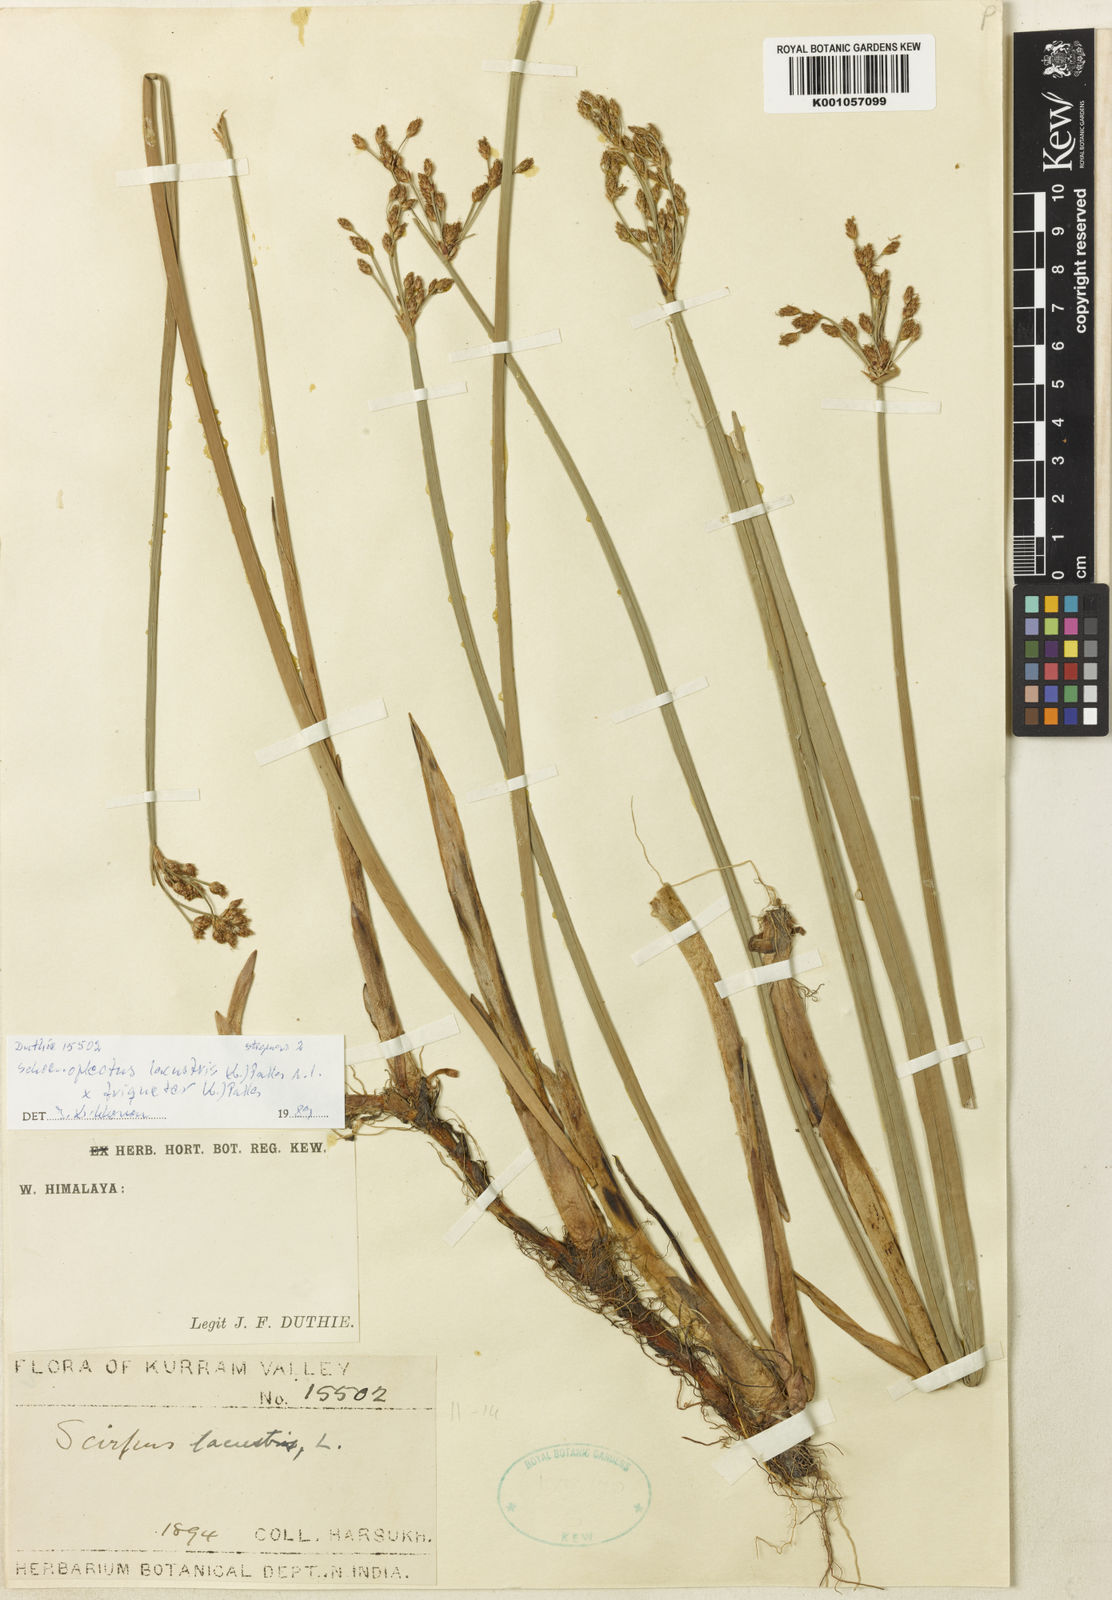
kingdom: Plantae
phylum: Tracheophyta
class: Liliopsida
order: Poales
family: Cyperaceae
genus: Schoenoplectus
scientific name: Schoenoplectus lacustris
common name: Common club-rush
